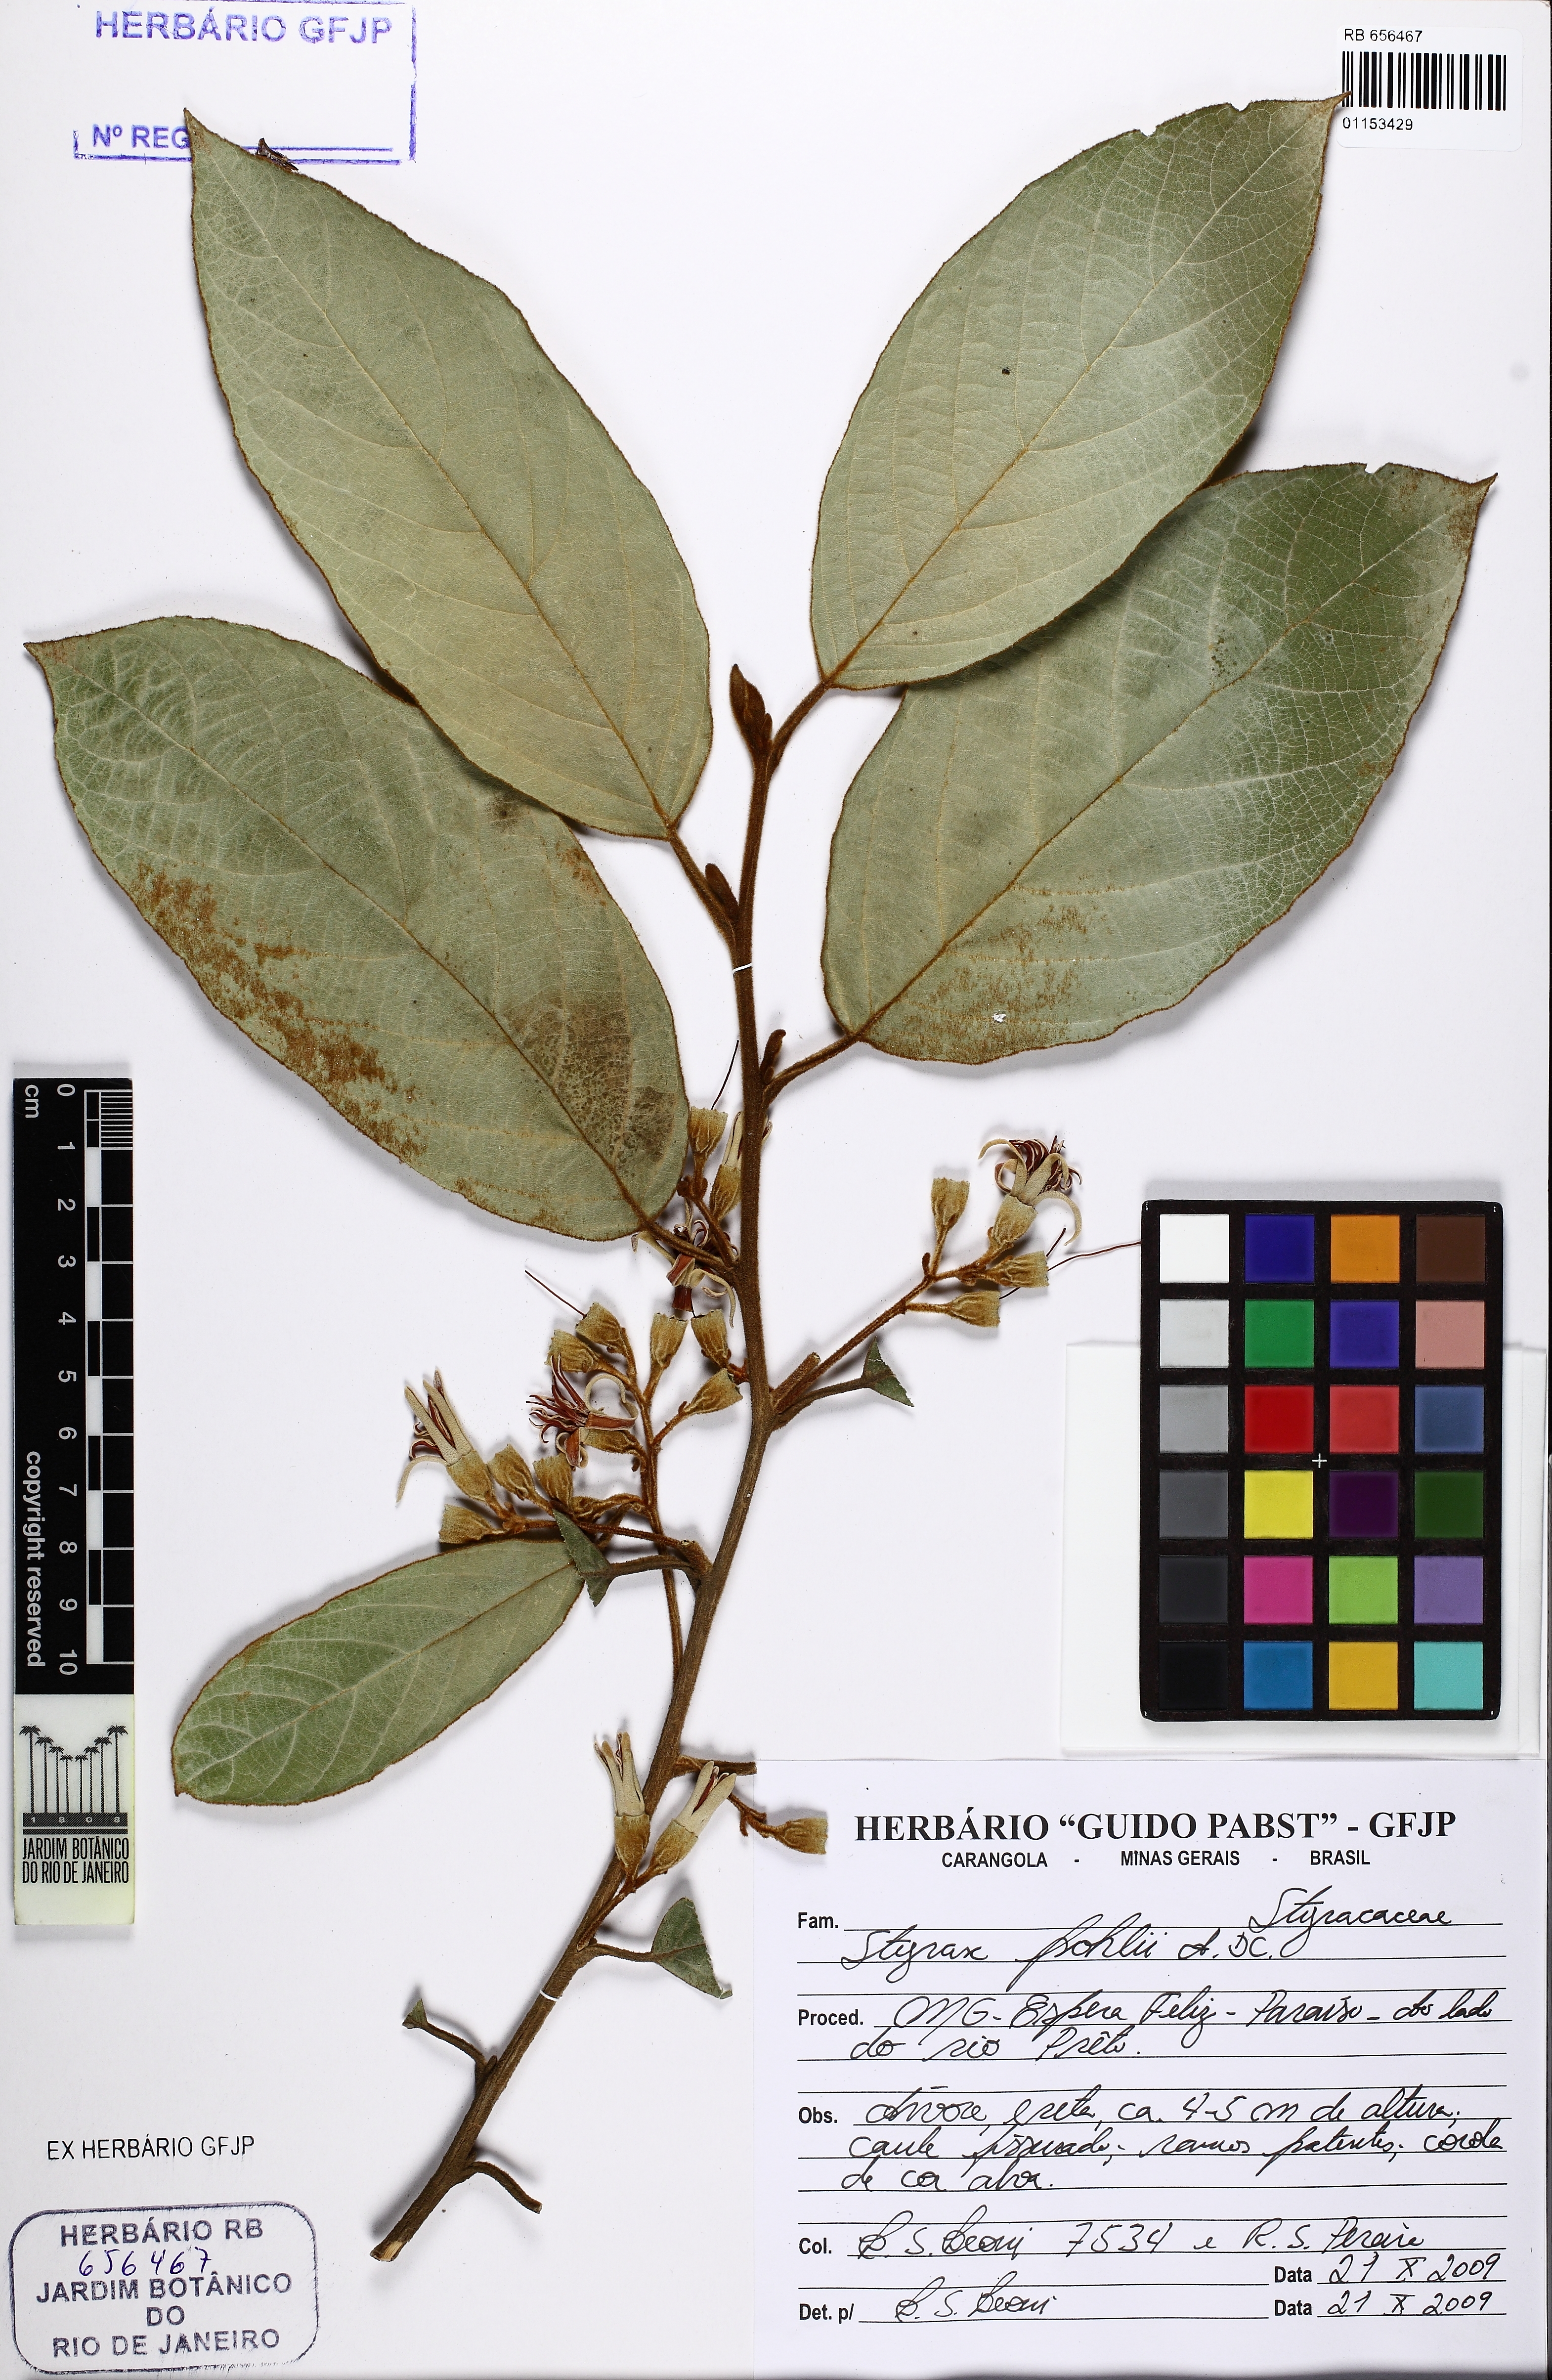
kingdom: Plantae
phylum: Tracheophyta
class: Magnoliopsida
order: Ericales
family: Styracaceae
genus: Styrax
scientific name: Styrax pohlii
